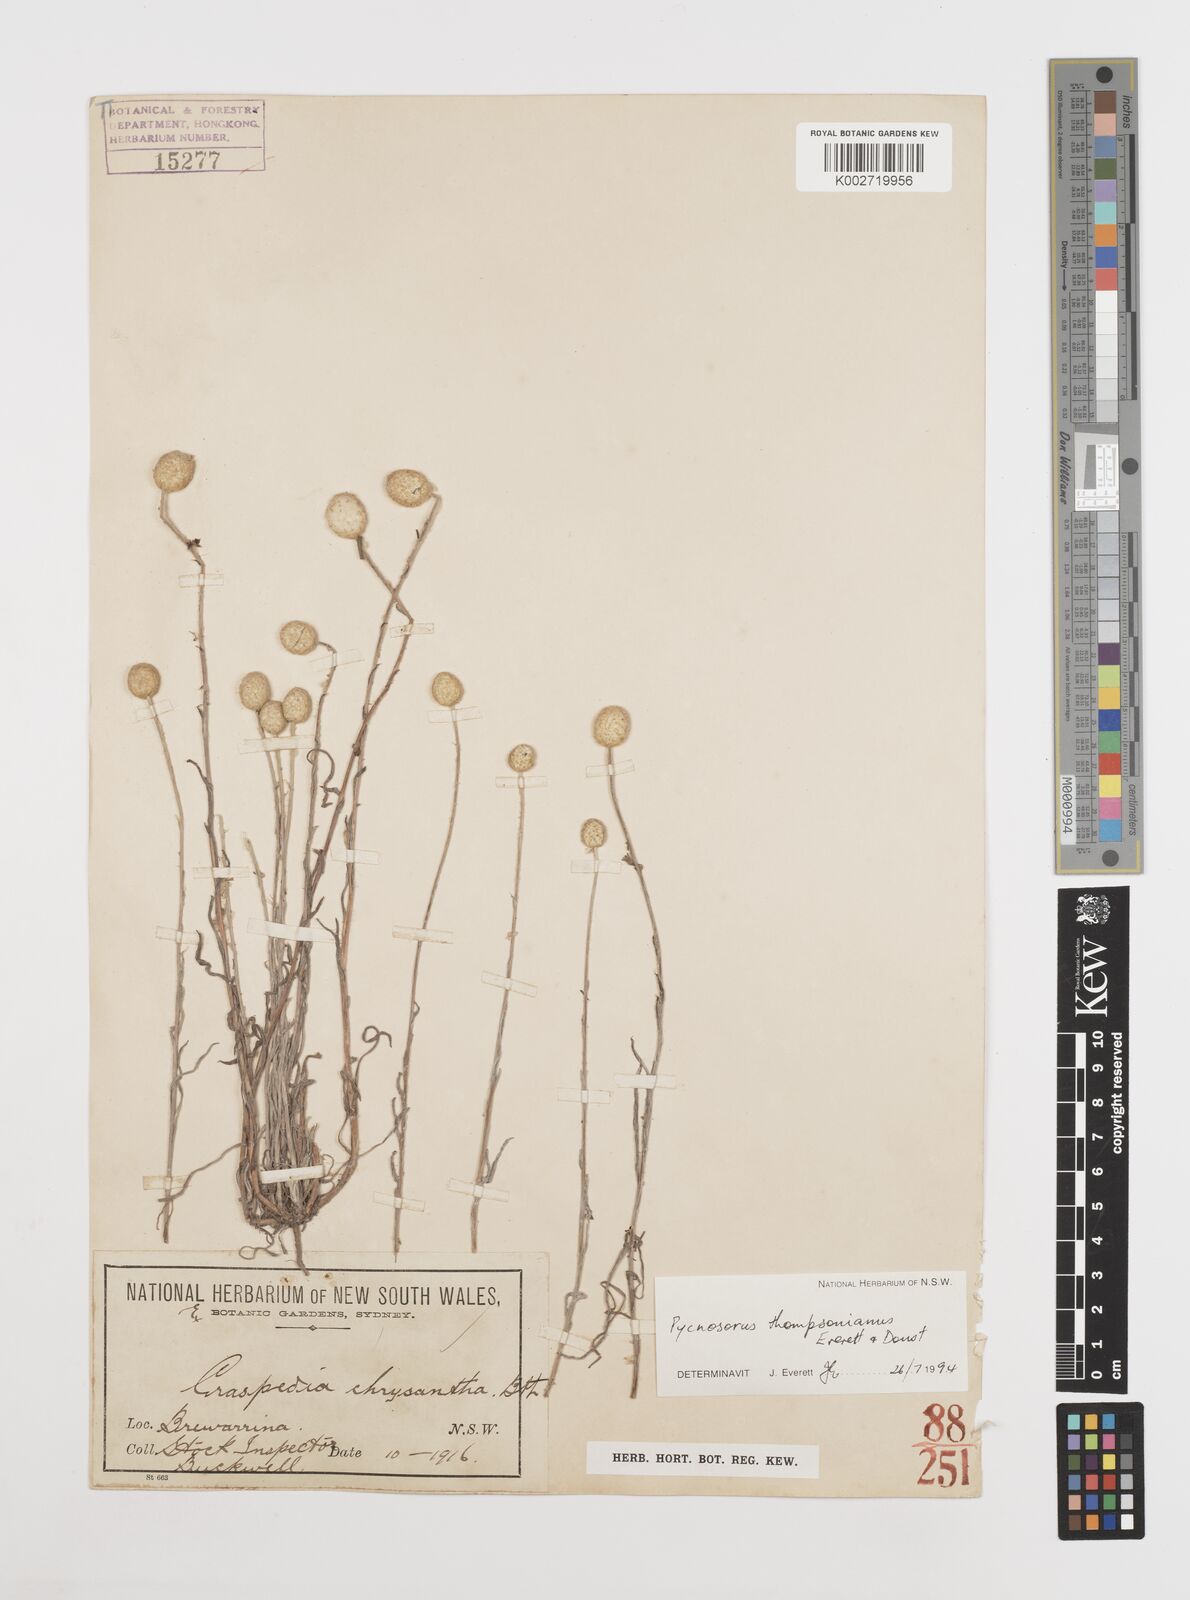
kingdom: Plantae
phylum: Tracheophyta
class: Magnoliopsida
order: Asterales
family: Asteraceae
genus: Pycnosorus
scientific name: Pycnosorus thompsonianus
